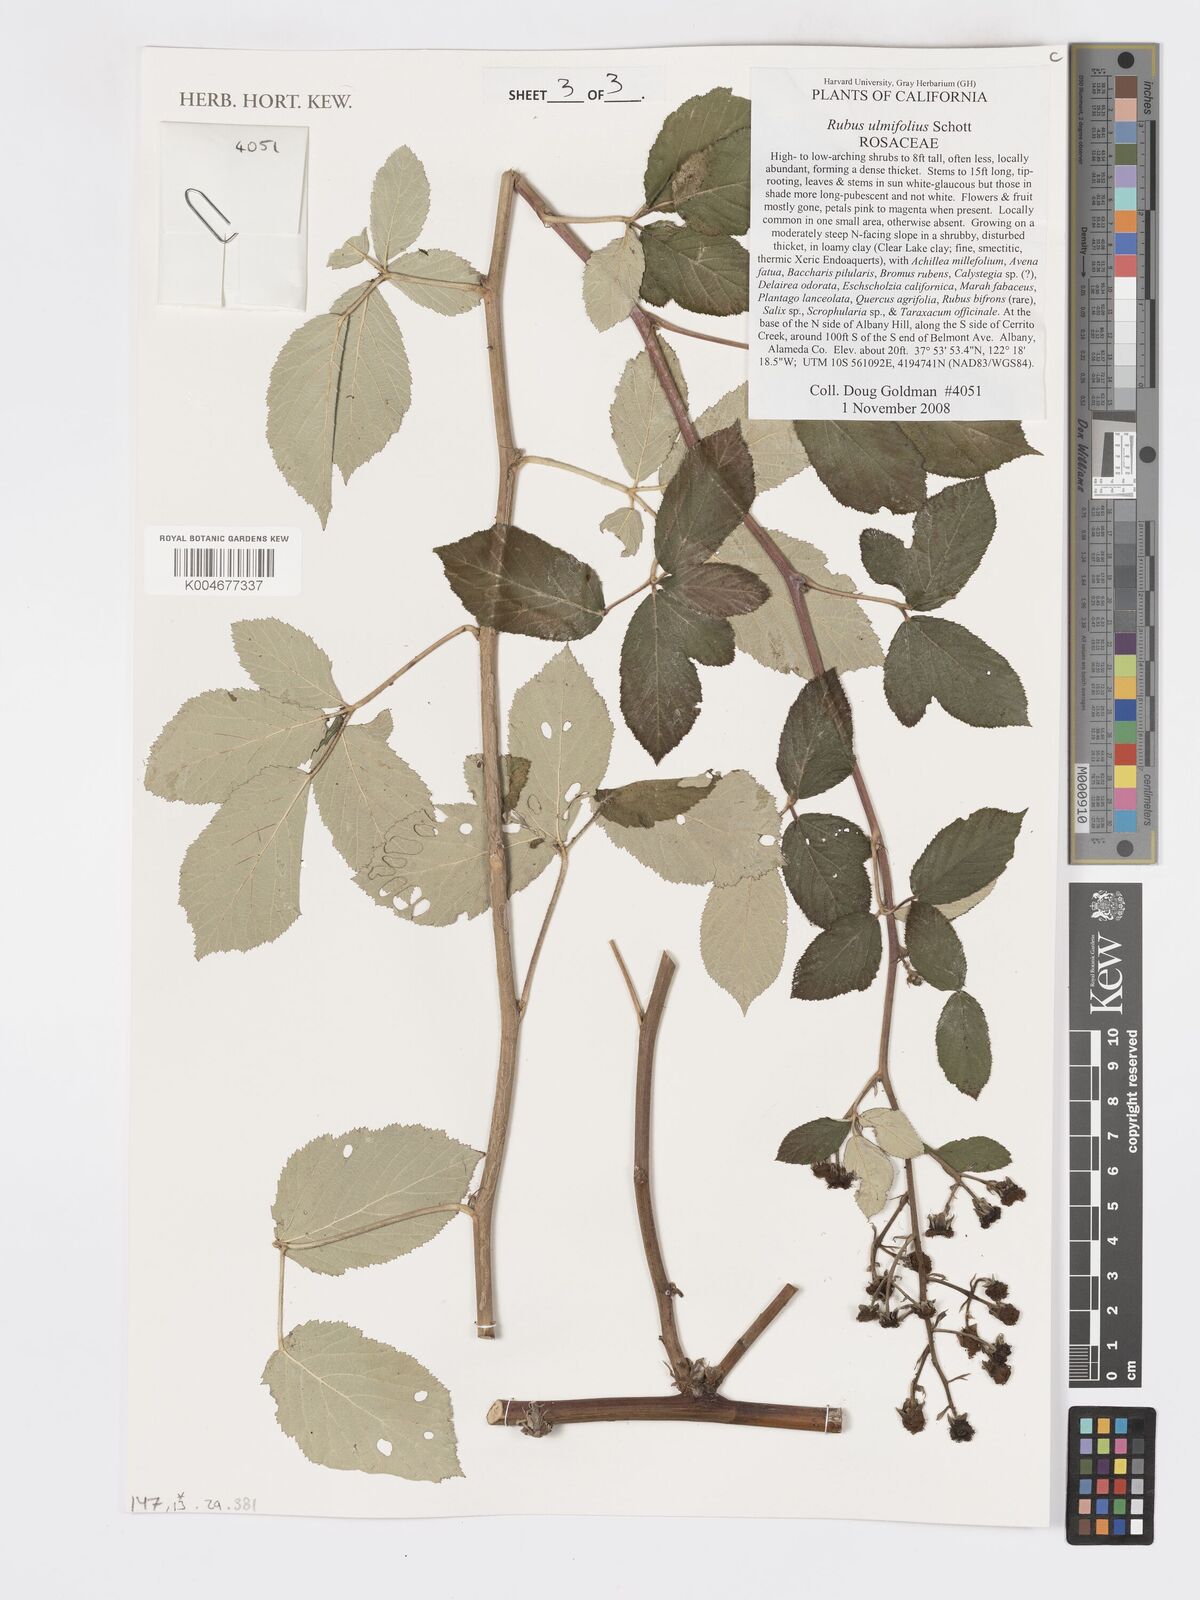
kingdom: Plantae
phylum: Tracheophyta
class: Magnoliopsida
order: Rosales
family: Rosaceae
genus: Rubus
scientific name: Rubus
